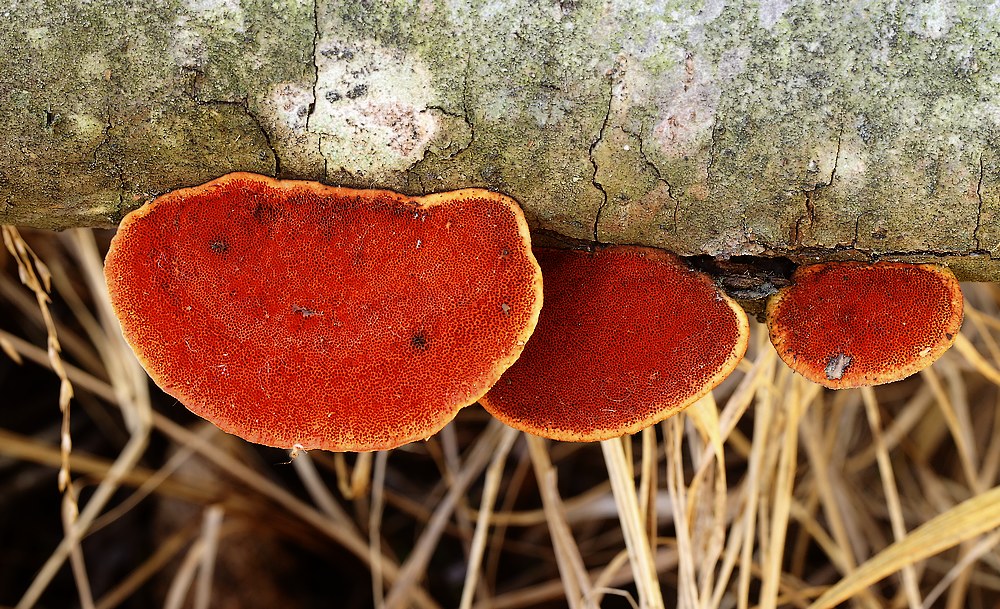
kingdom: Fungi
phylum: Basidiomycota
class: Agaricomycetes
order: Polyporales
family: Polyporaceae
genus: Trametes
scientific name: Trametes cinnabarina
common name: cinnoberporesvamp
